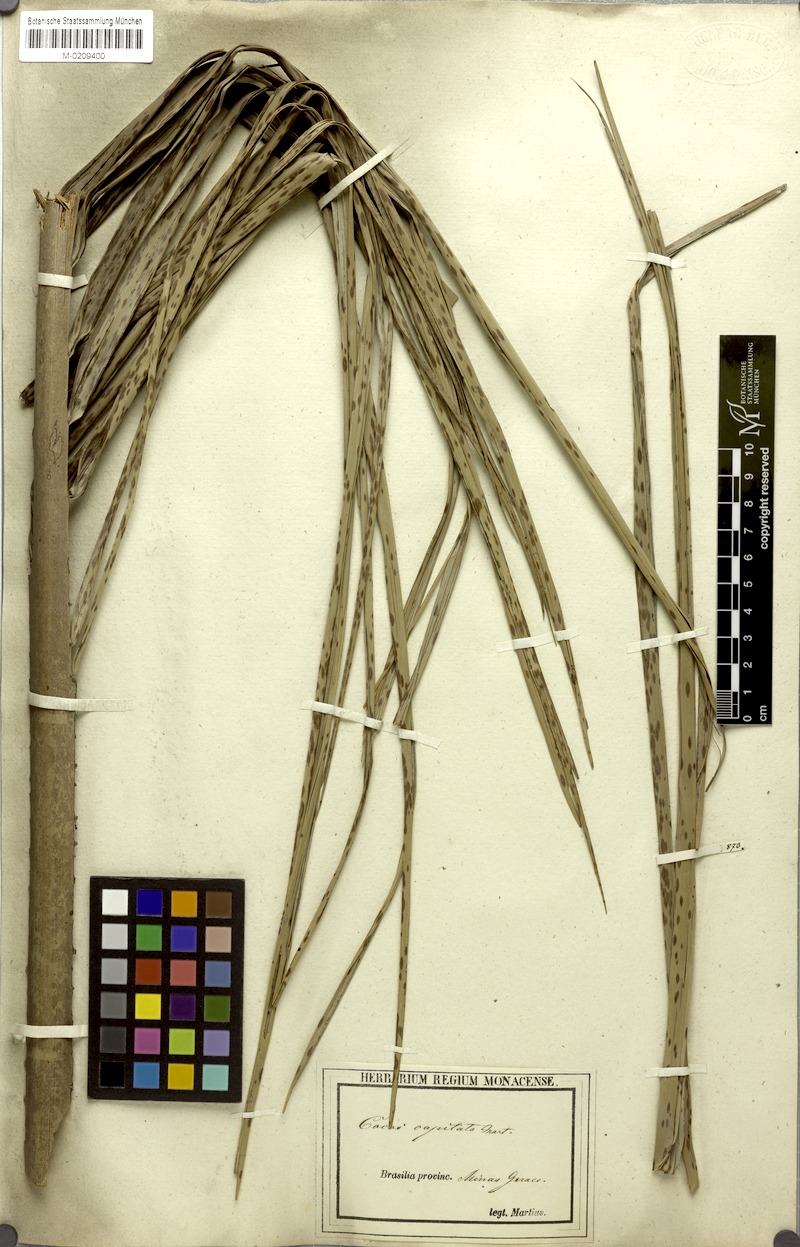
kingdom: Plantae
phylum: Tracheophyta
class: Liliopsida
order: Arecales
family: Arecaceae
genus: Butia
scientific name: Butia capitata
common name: South american jelly palm
